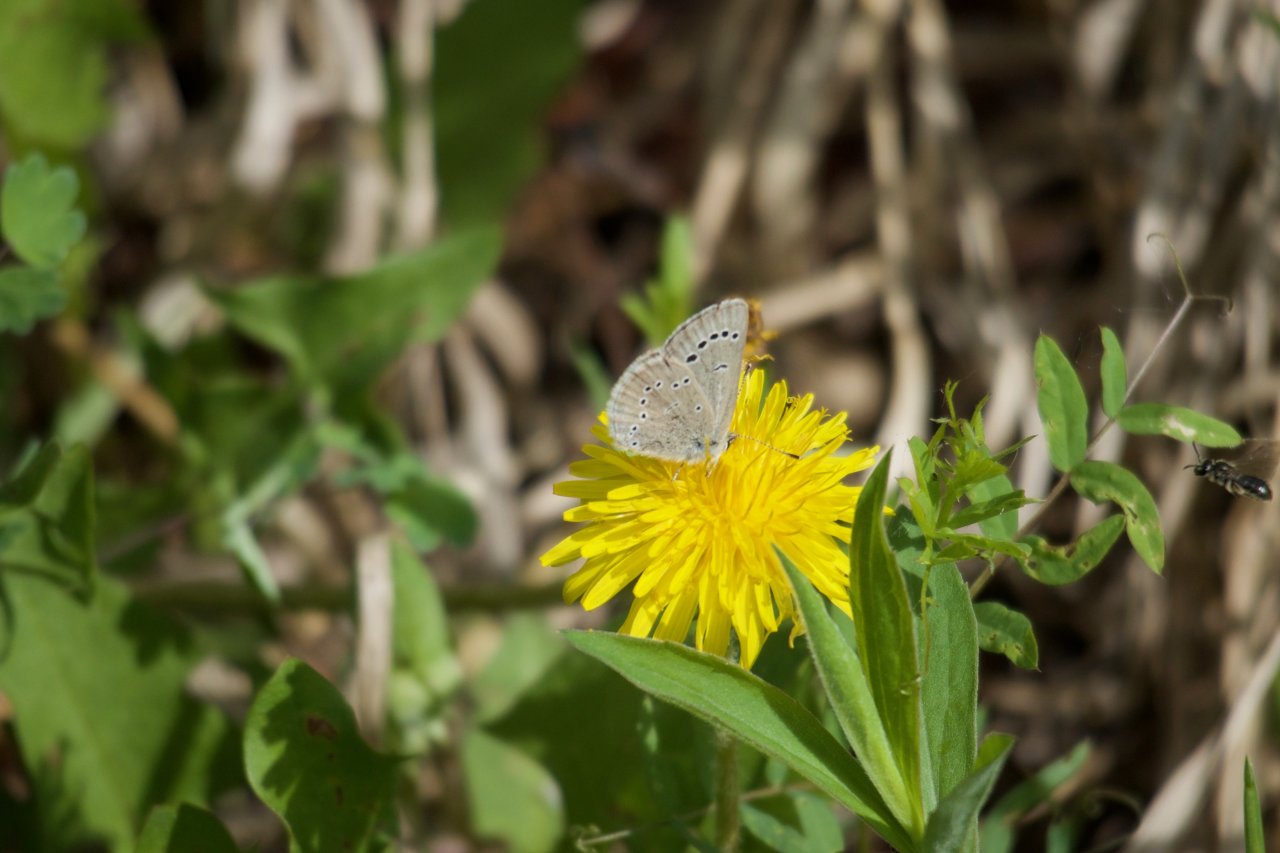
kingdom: Animalia
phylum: Arthropoda
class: Insecta
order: Lepidoptera
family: Lycaenidae
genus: Glaucopsyche
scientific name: Glaucopsyche lygdamus
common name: Silvery Blue
